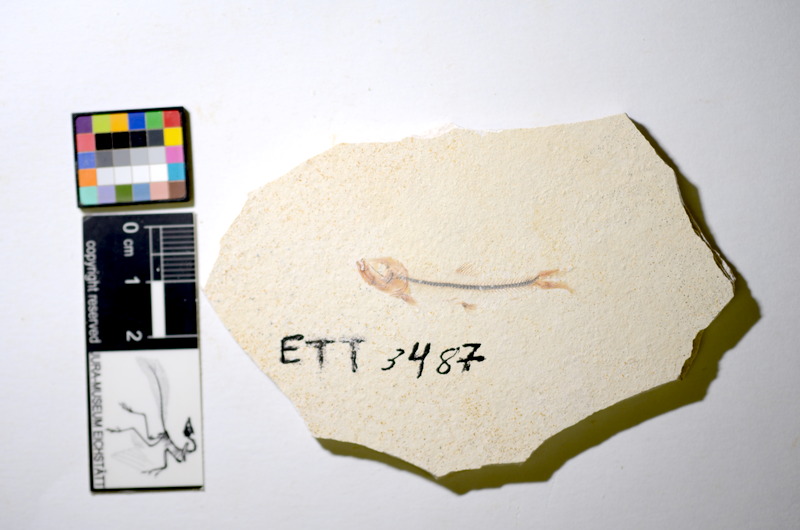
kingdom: Animalia
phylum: Chordata
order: Salmoniformes
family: Orthogonikleithridae
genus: Orthogonikleithrus
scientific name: Orthogonikleithrus hoelli
